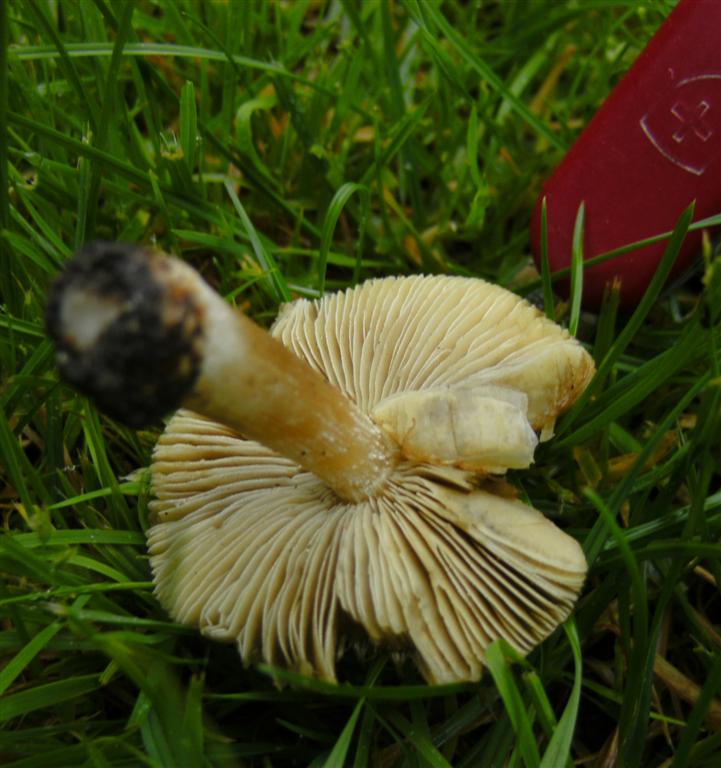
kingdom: Fungi
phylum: Basidiomycota
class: Agaricomycetes
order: Agaricales
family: Inocybaceae
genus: Pseudosperma
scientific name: Pseudosperma rimosum
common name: gulbladet trævlhat
